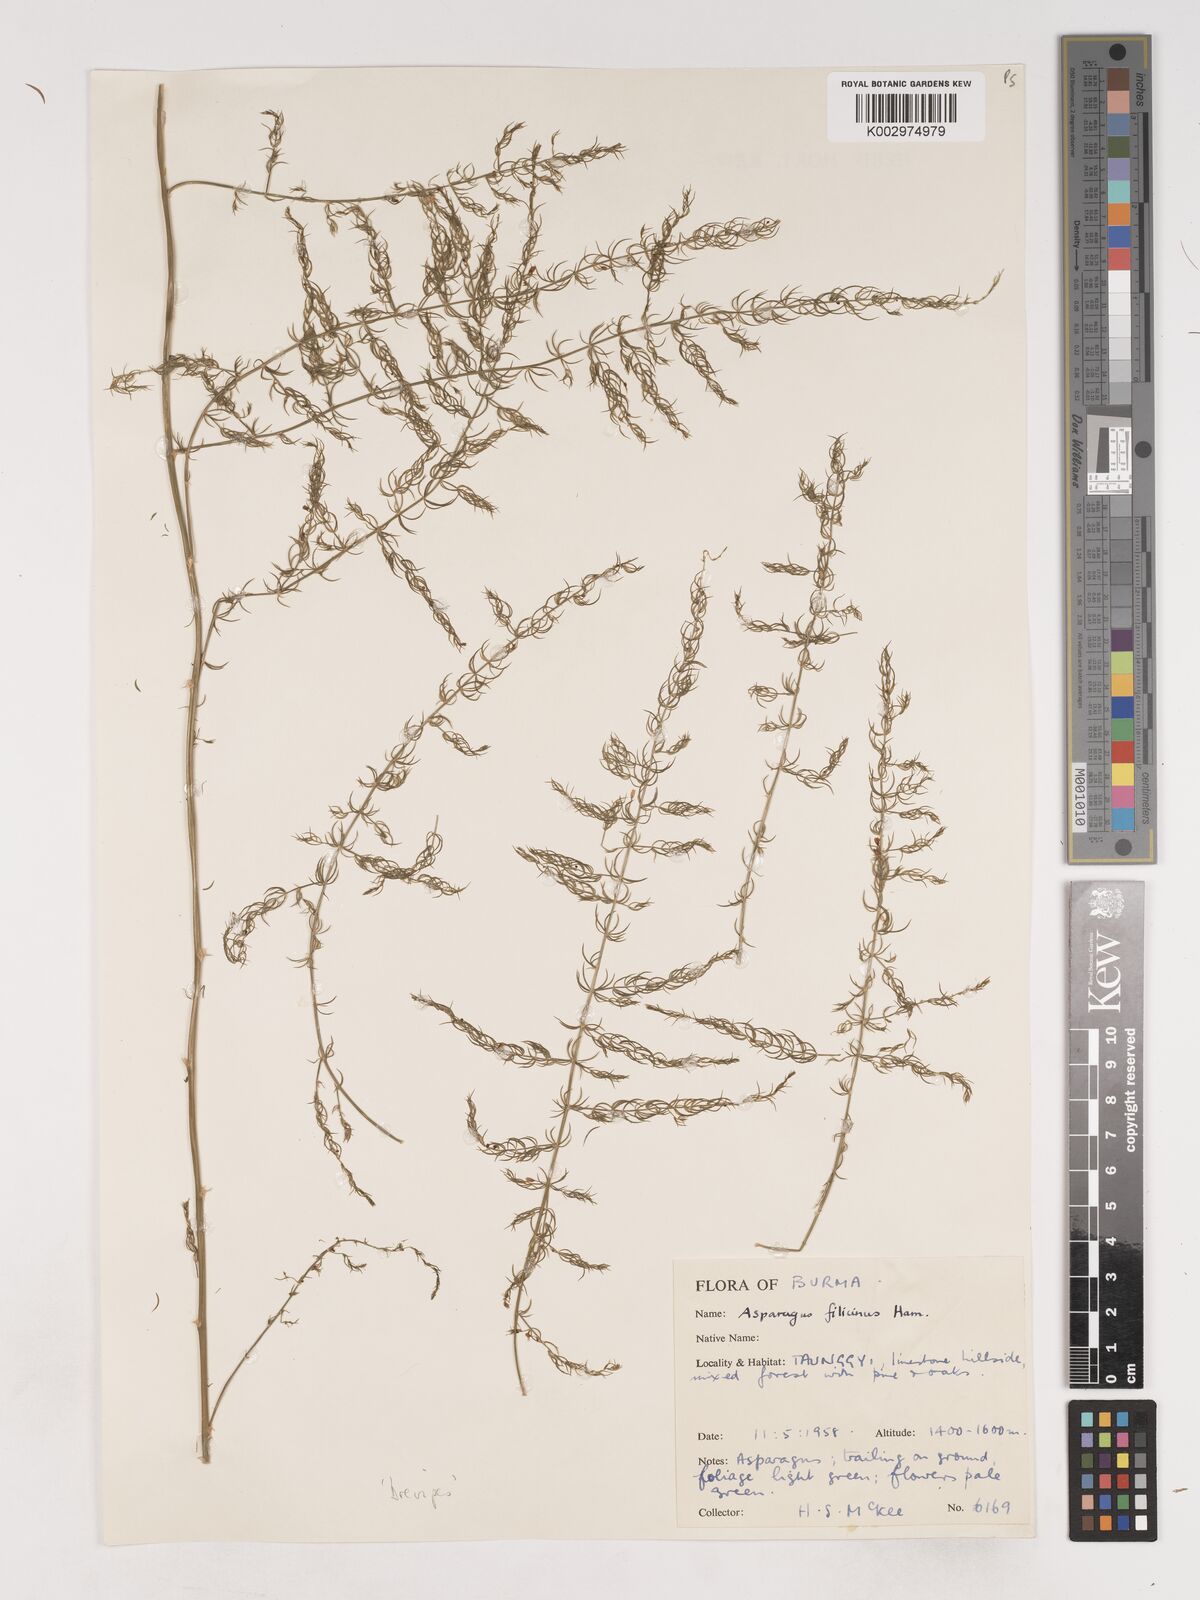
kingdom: Plantae
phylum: Tracheophyta
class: Liliopsida
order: Asparagales
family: Asparagaceae
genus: Asparagus
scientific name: Asparagus filicinus
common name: Fern asparagus
